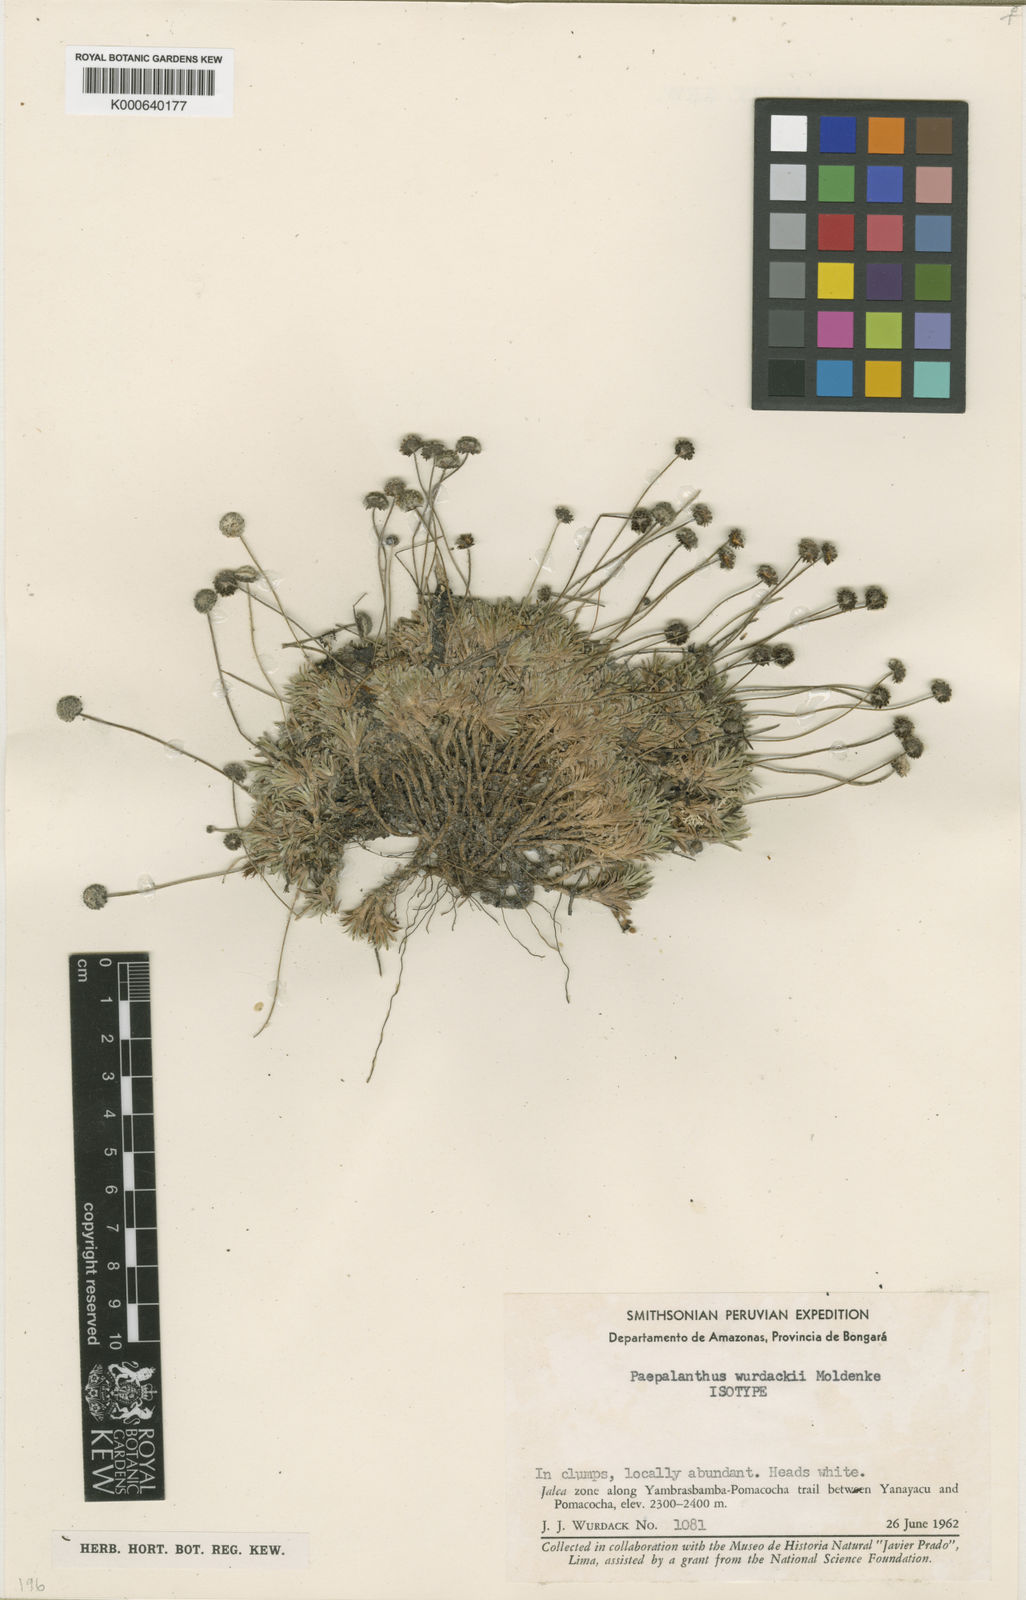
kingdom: Plantae
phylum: Tracheophyta
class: Liliopsida
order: Poales
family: Eriocaulaceae
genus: Paepalanthus
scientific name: Paepalanthus ferreyrae
